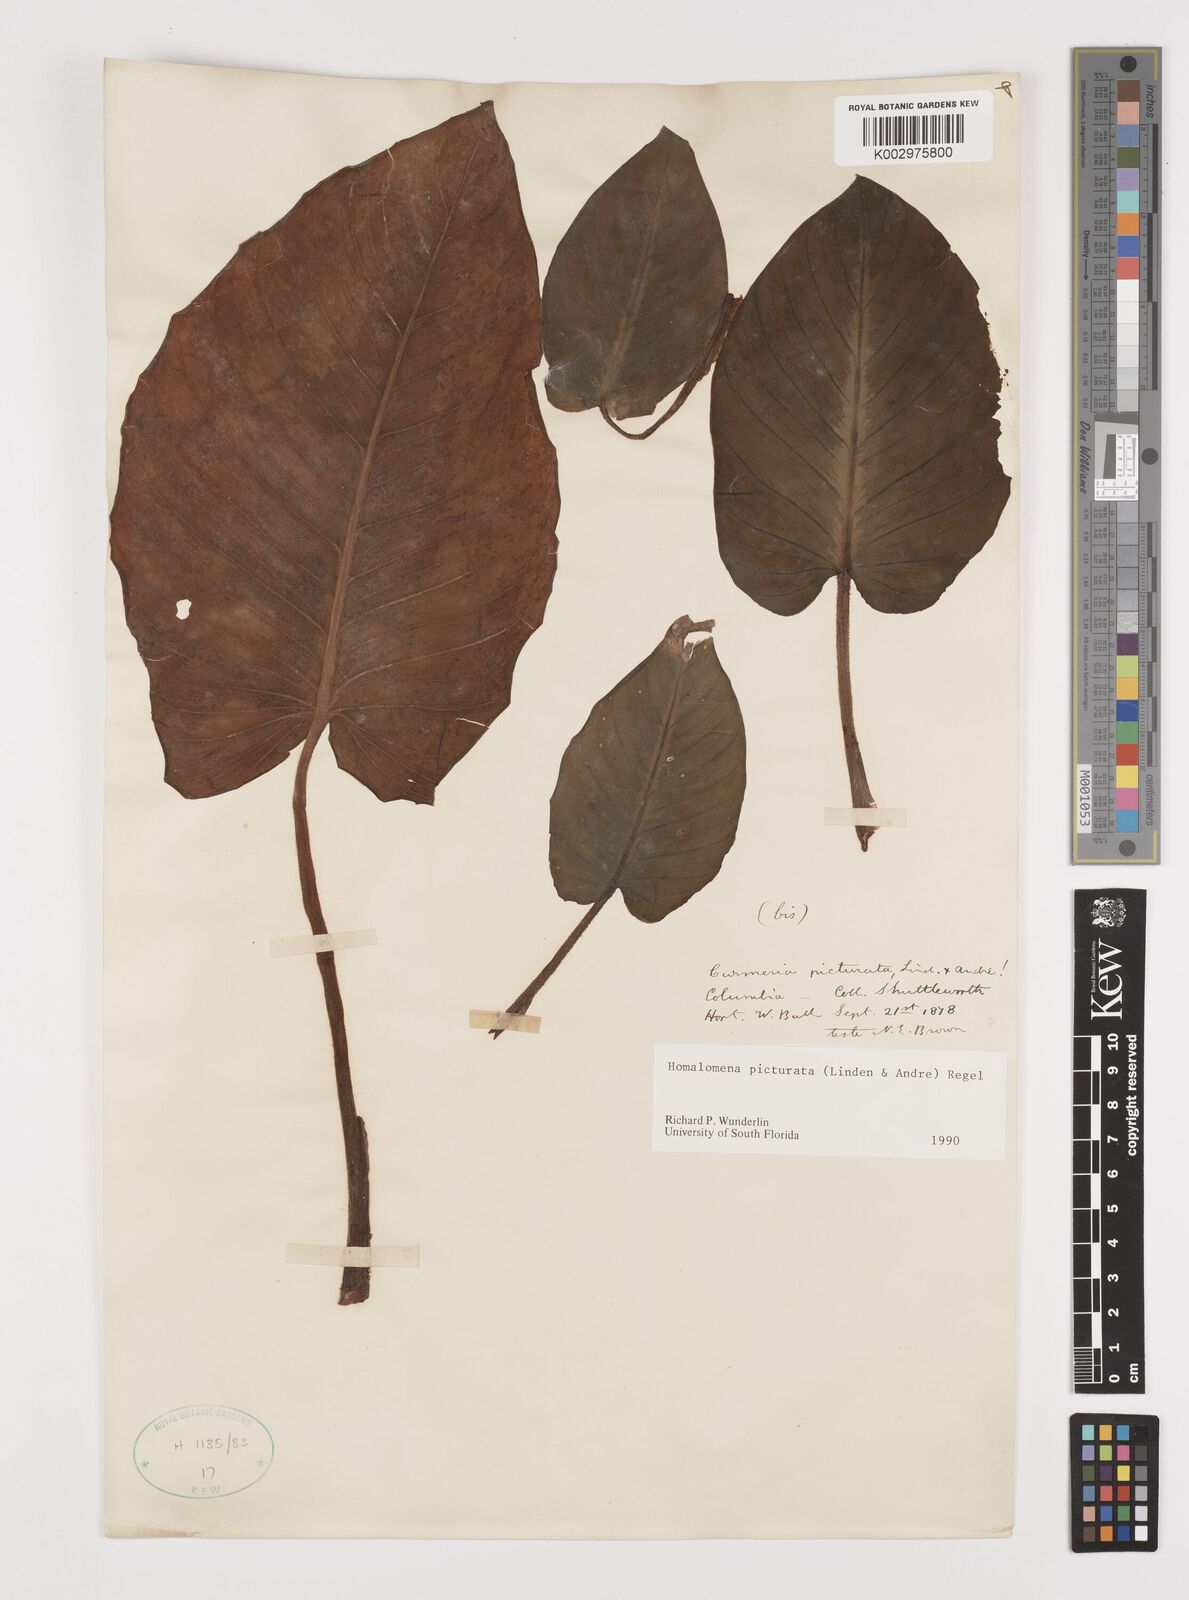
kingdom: Plantae
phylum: Tracheophyta
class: Liliopsida
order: Alismatales
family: Araceae
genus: Adelonema
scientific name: Adelonema picturatum
